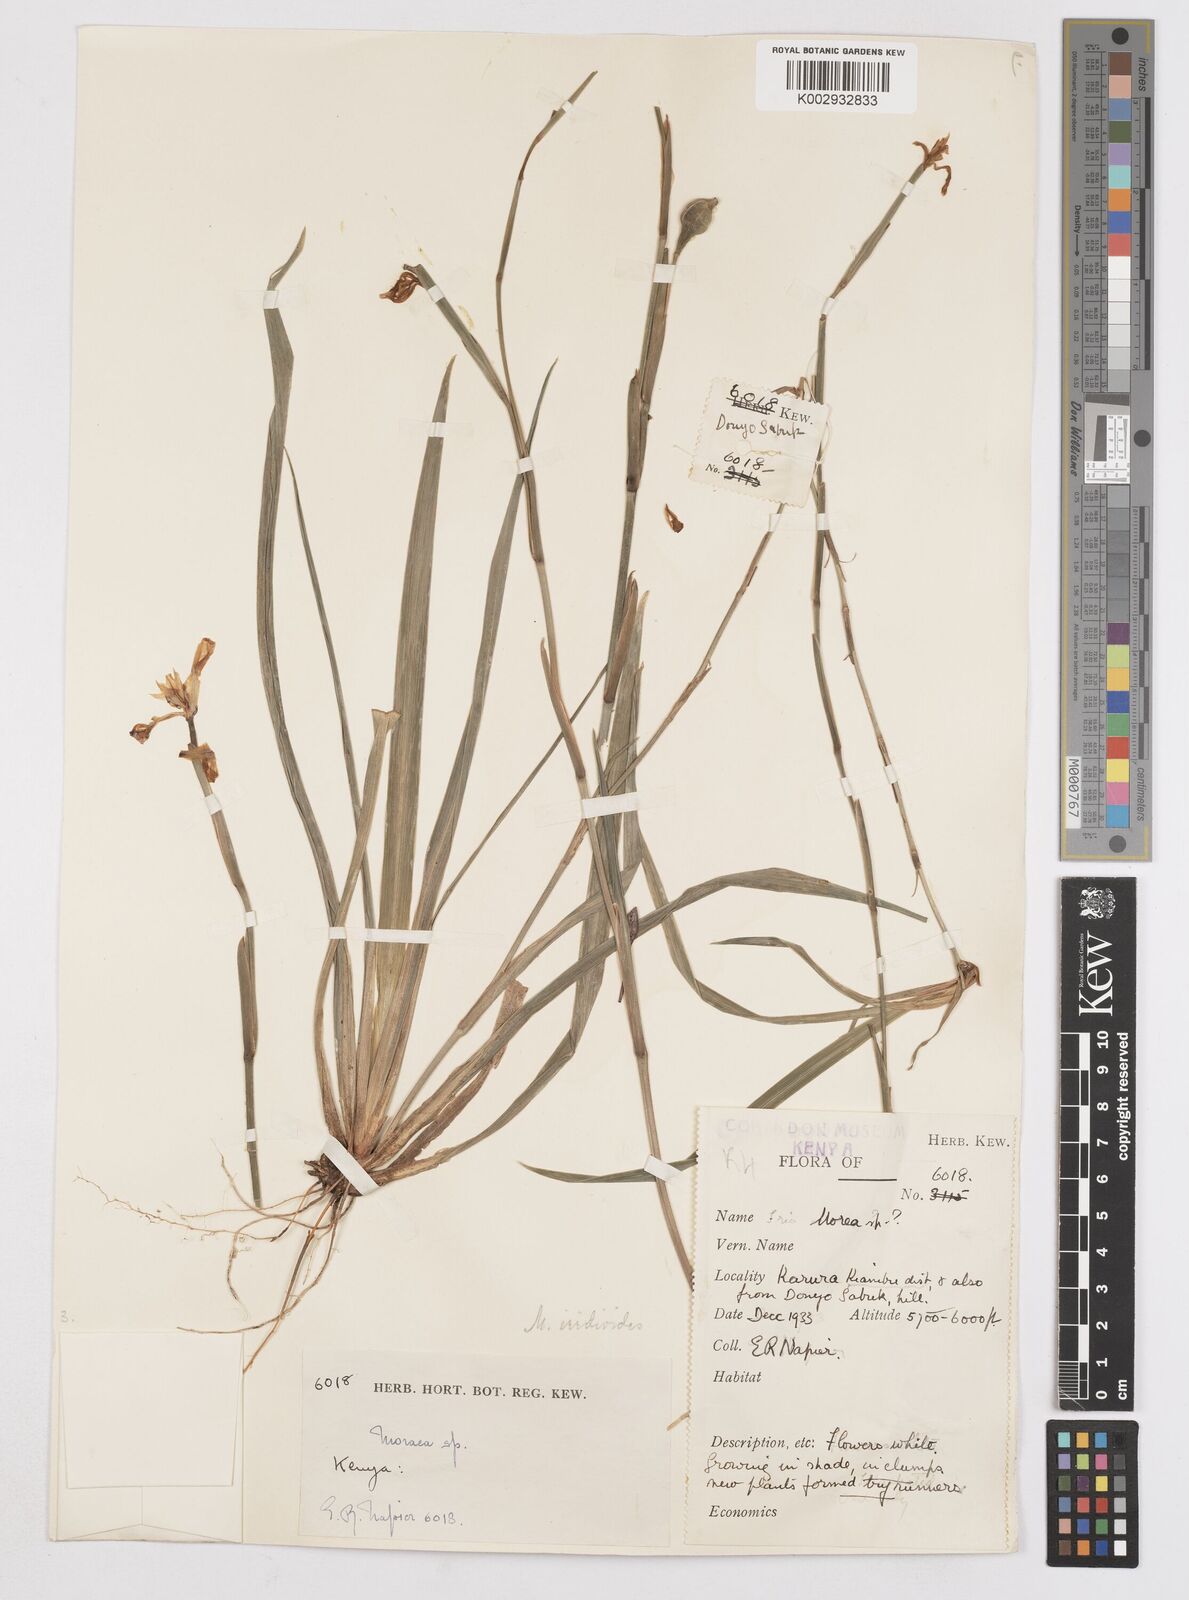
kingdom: Plantae
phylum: Tracheophyta
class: Liliopsida
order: Asparagales
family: Iridaceae
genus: Dietes
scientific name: Dietes iridioides
